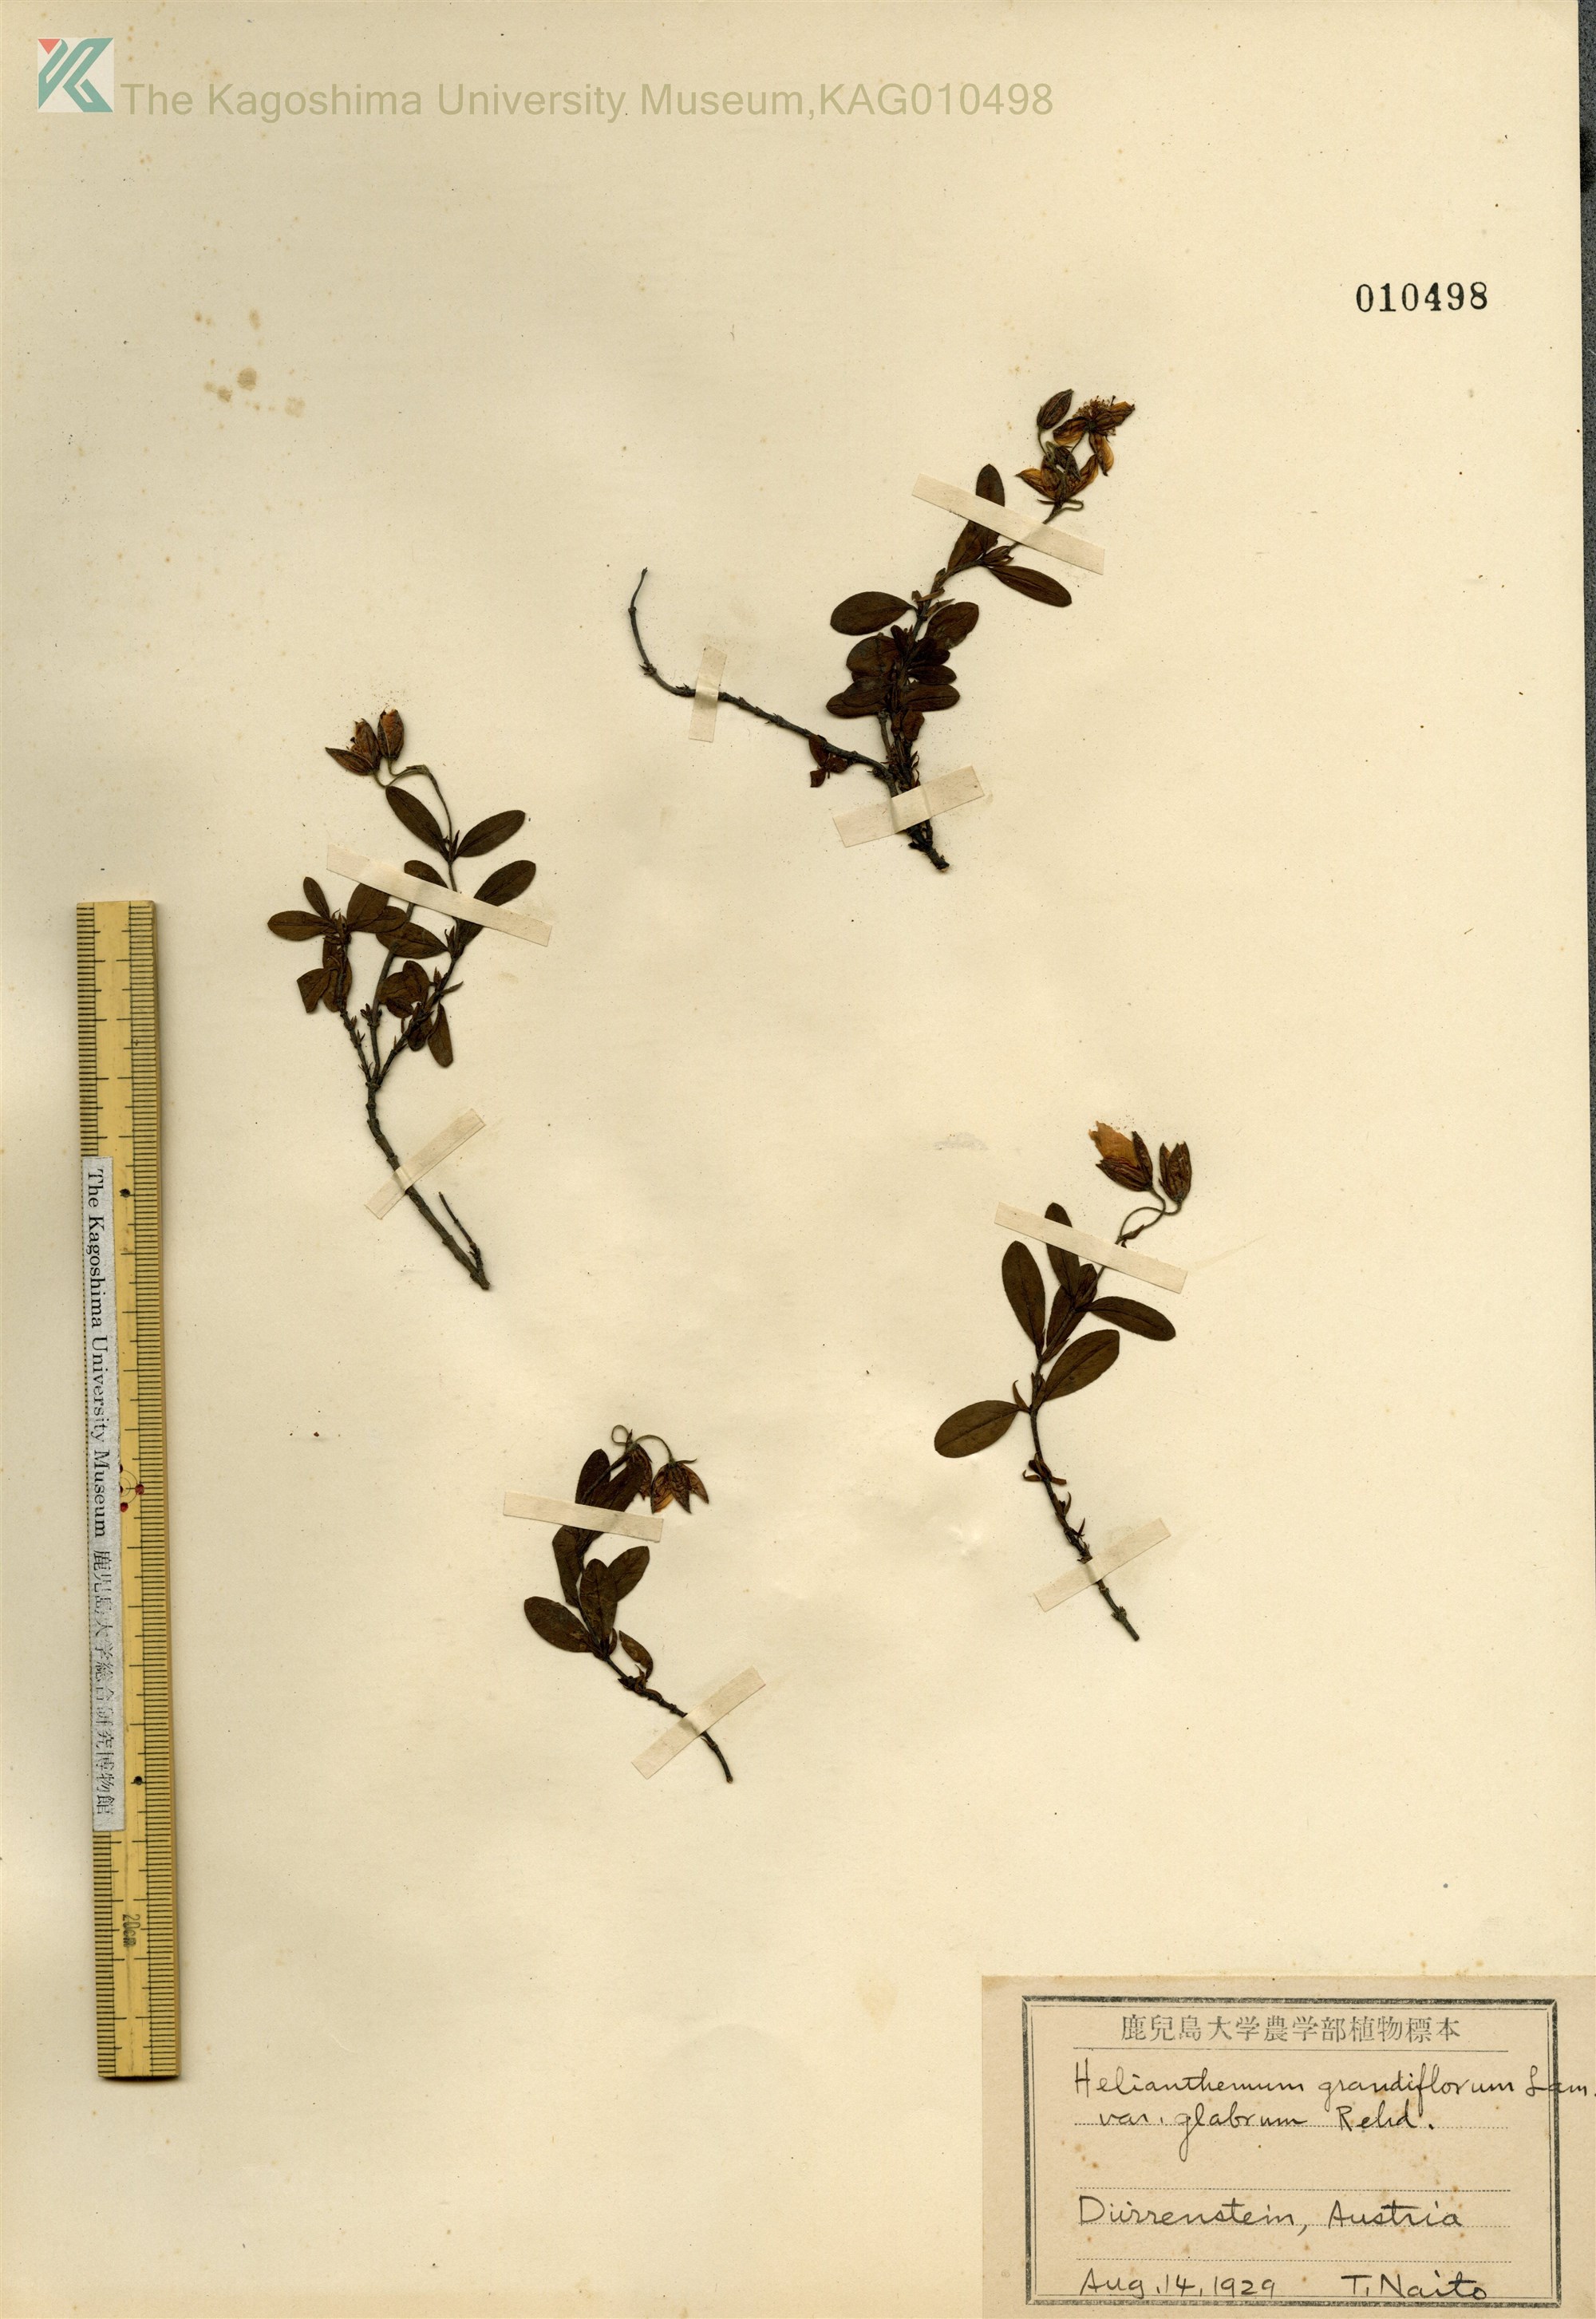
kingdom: Plantae
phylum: Tracheophyta
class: Magnoliopsida
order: Malvales
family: Cistaceae
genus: Helianthemum
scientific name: Helianthemum nummularium
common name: Common rock-rose
